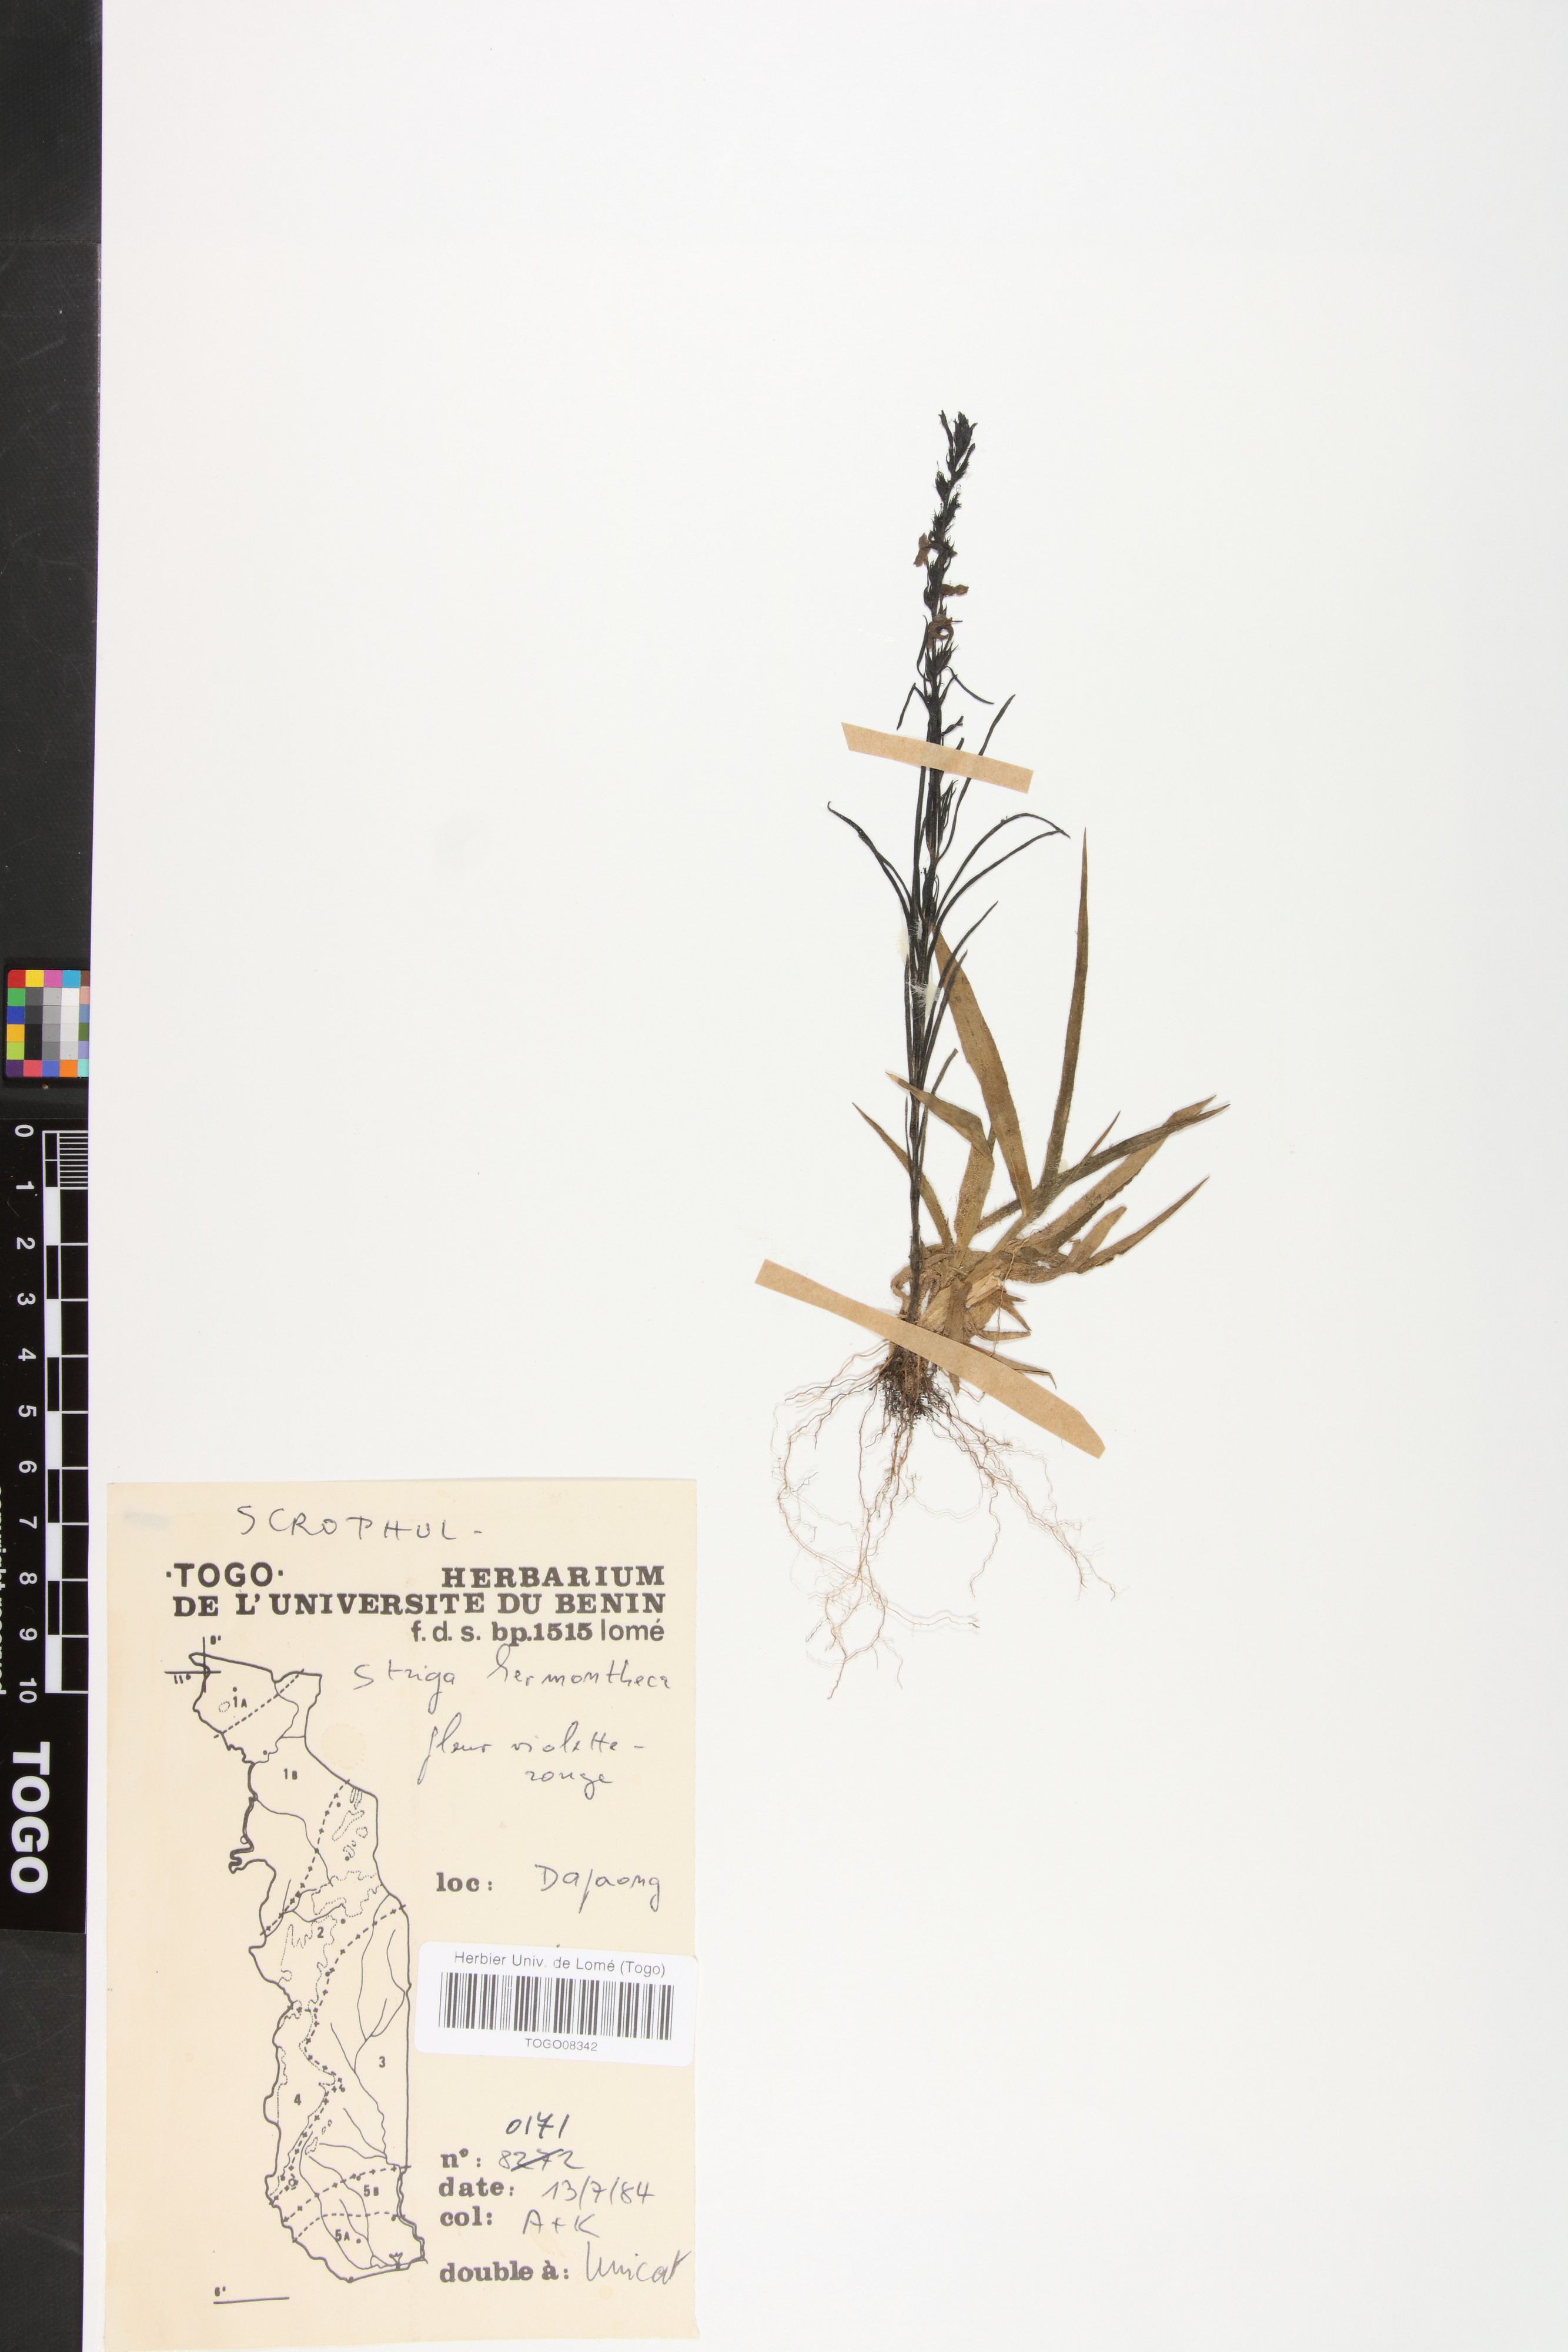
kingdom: Plantae
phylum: Tracheophyta
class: Magnoliopsida
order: Lamiales
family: Orobanchaceae
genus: Striga
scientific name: Striga hermonthica
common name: Purple witchweed
